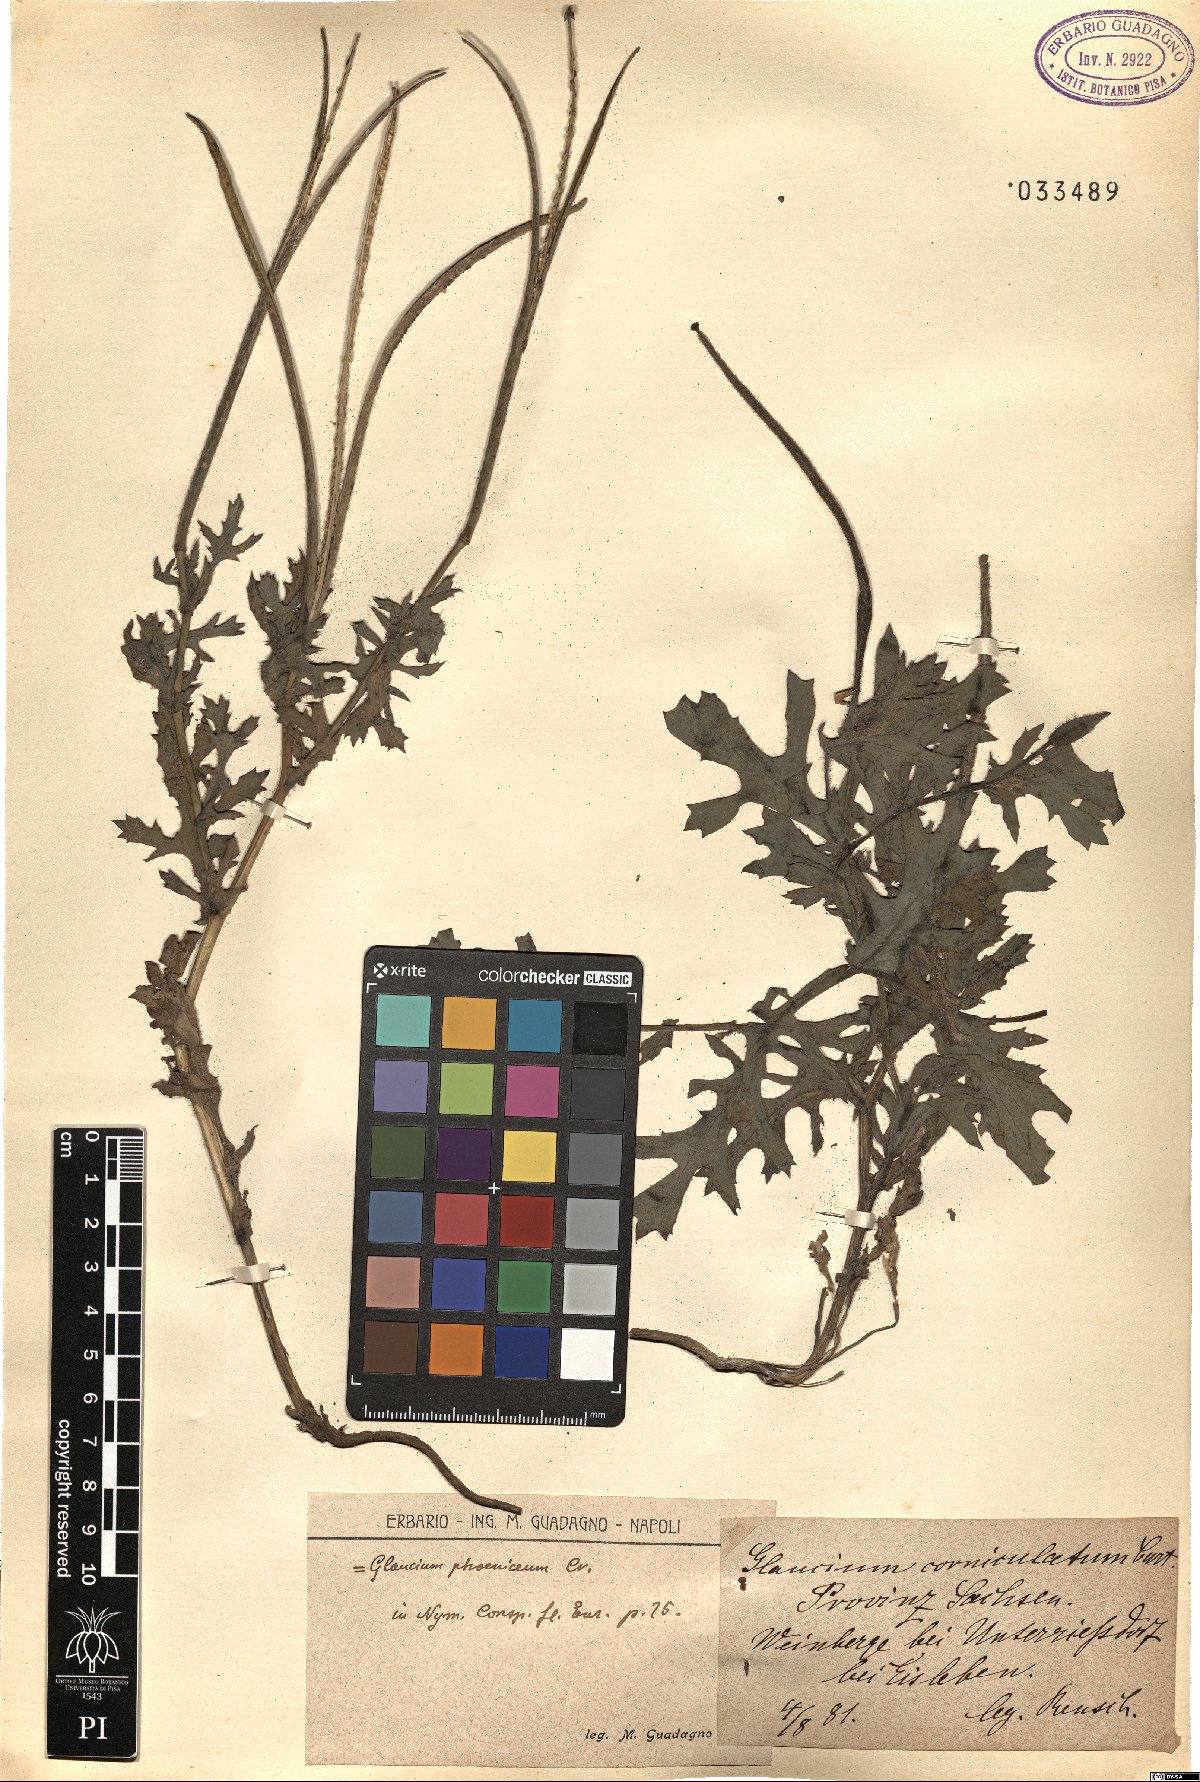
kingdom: Plantae
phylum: Tracheophyta
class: Magnoliopsida
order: Ranunculales
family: Papaveraceae
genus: Glaucium
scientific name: Glaucium corniculatum
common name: Red horned-poppy
